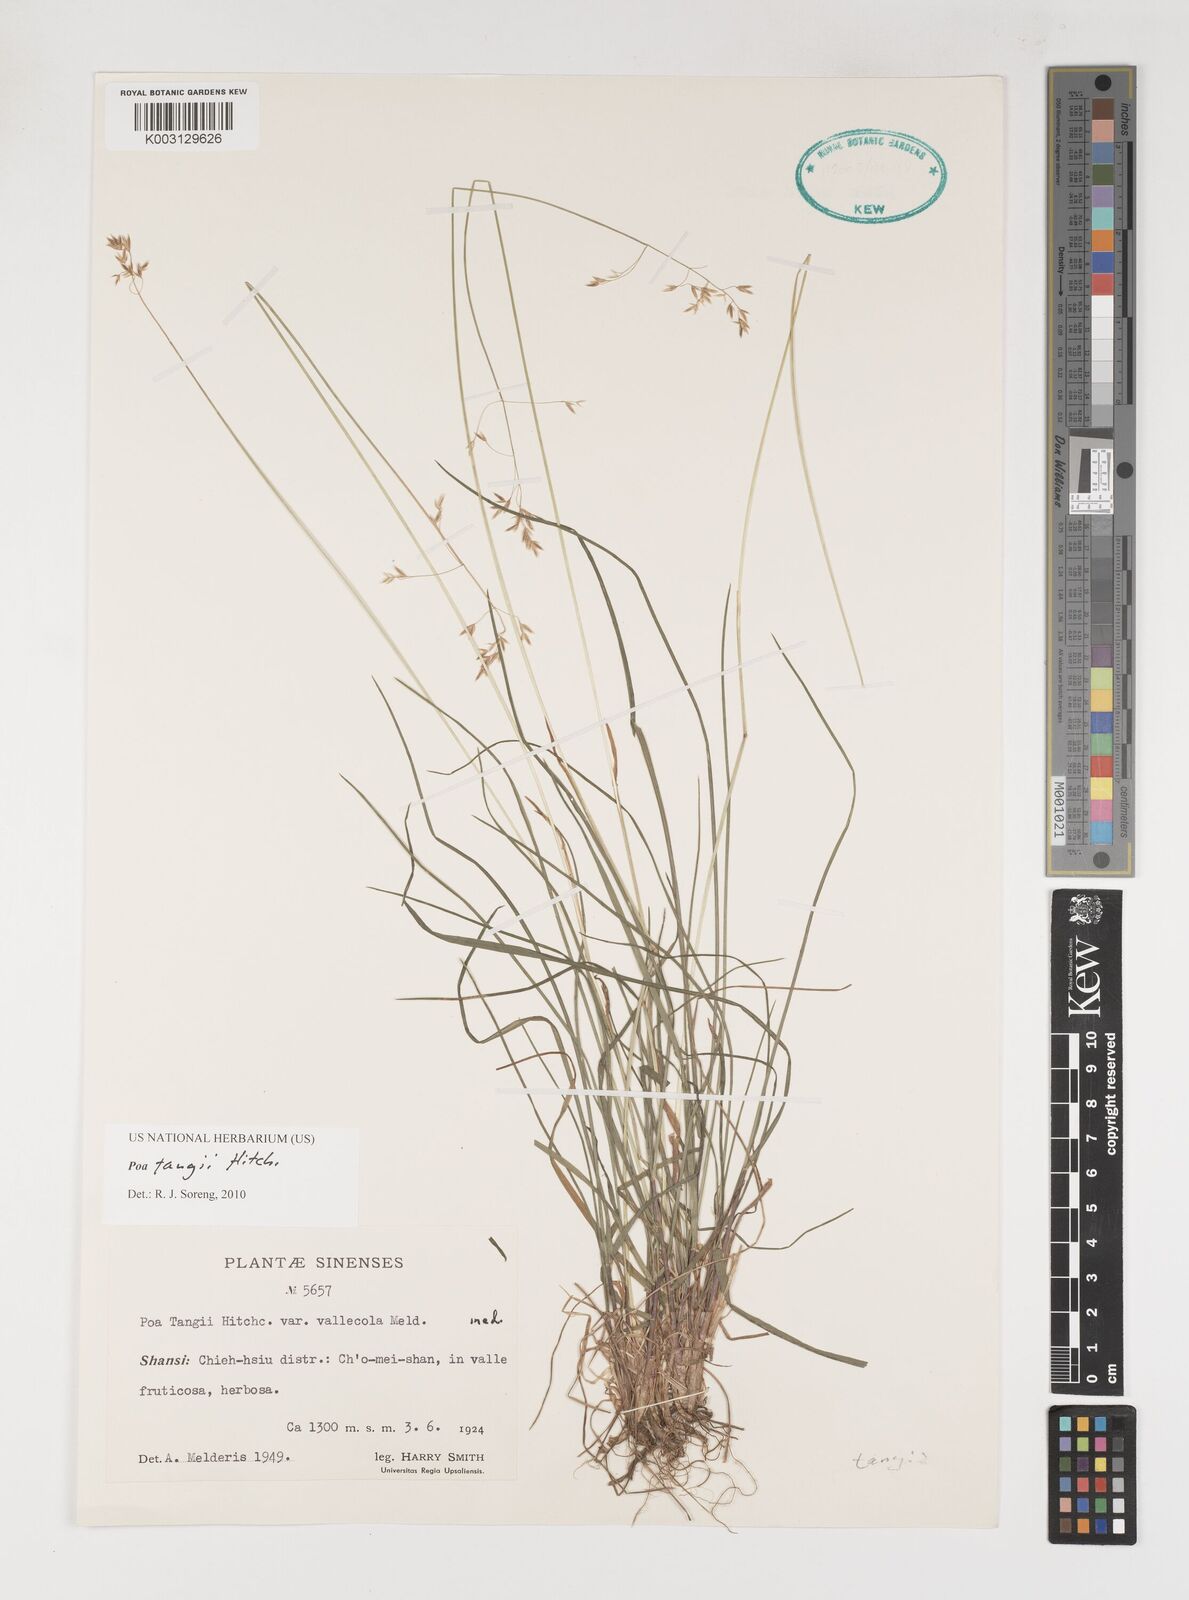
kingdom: Plantae
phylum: Tracheophyta
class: Liliopsida
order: Poales
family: Poaceae
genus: Poa
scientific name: Poa tangii
